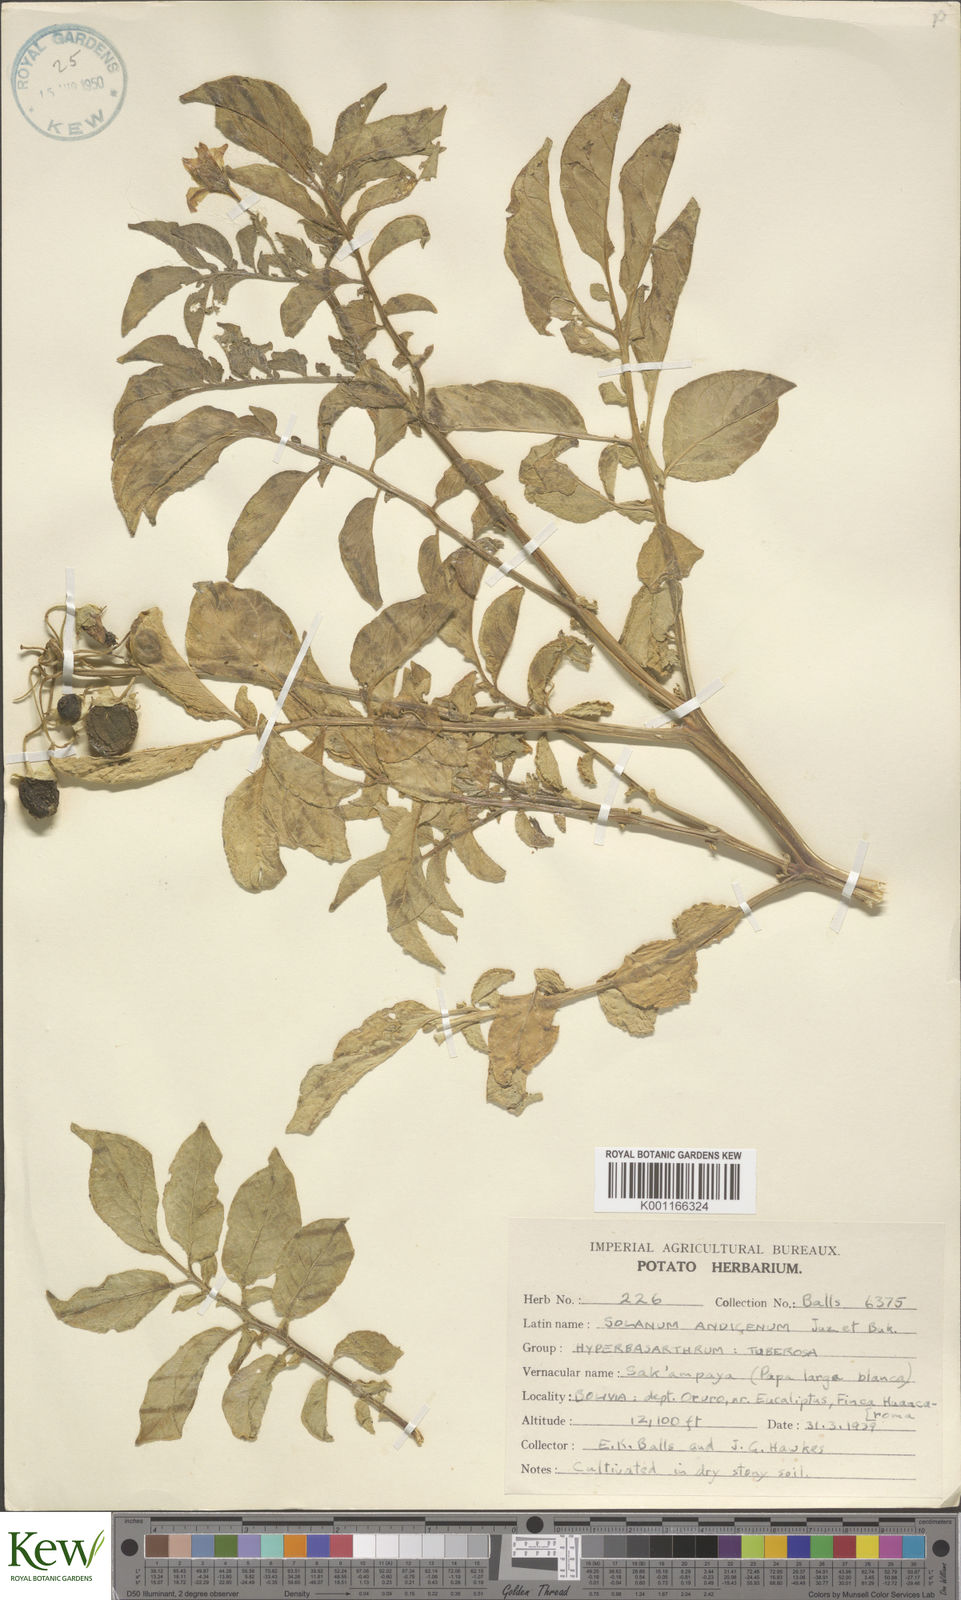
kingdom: Plantae
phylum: Tracheophyta
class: Magnoliopsida
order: Solanales
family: Solanaceae
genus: Solanum
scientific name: Solanum tuberosum
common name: Potato
